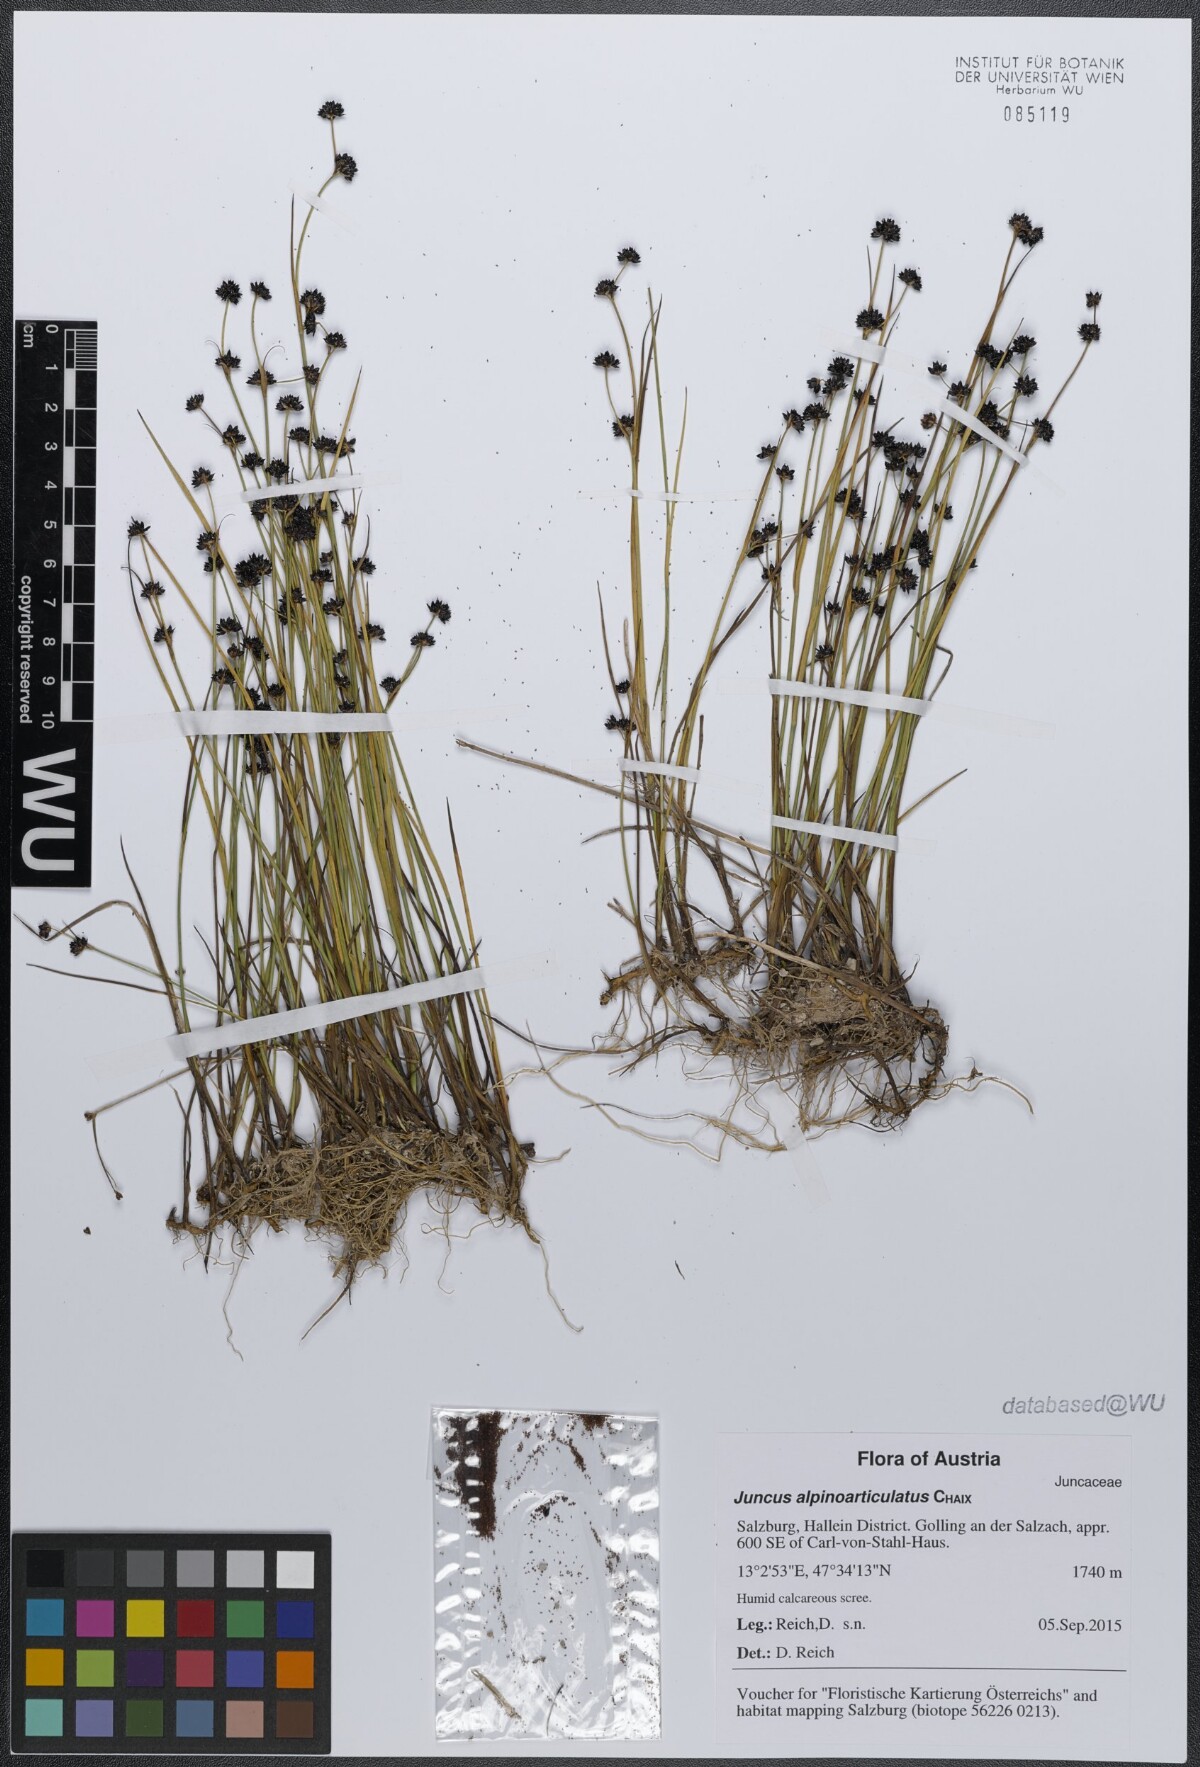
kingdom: Plantae
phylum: Tracheophyta
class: Liliopsida
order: Poales
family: Juncaceae
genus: Juncus
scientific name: Juncus alpinoarticulatus
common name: Alpine rush
